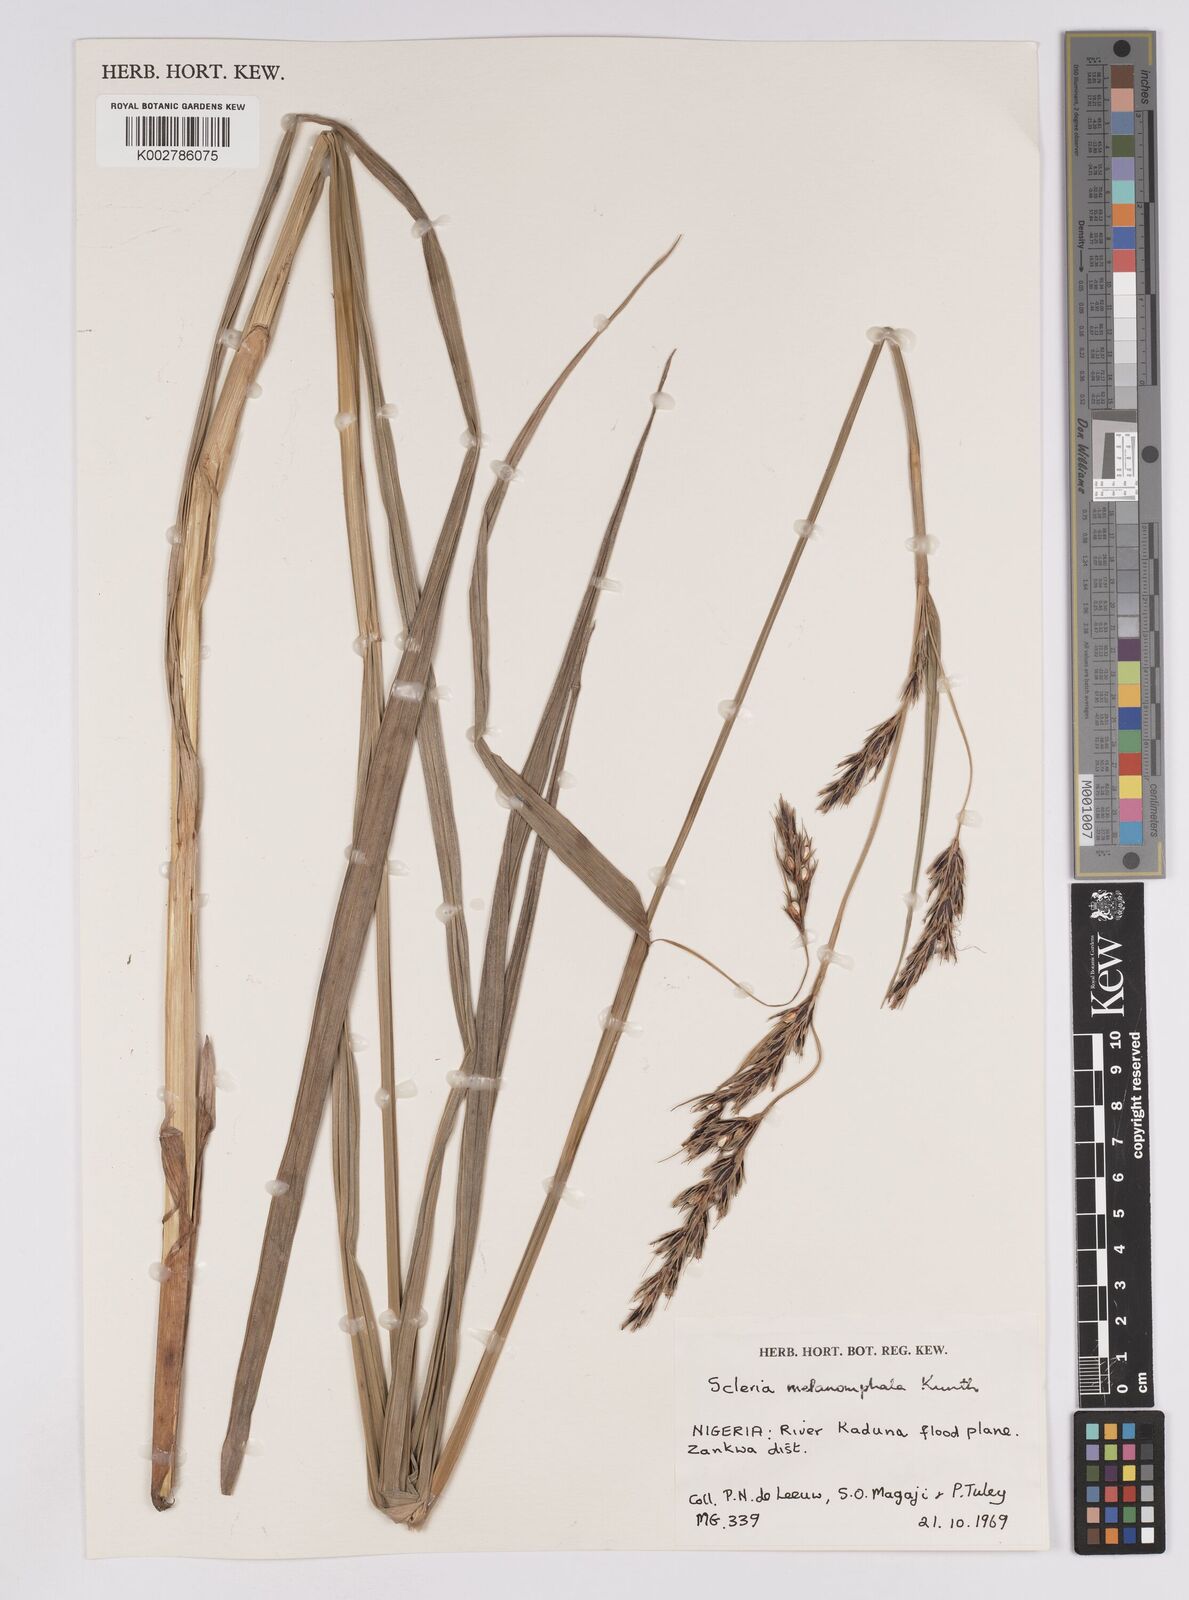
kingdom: Plantae
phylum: Tracheophyta
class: Liliopsida
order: Poales
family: Cyperaceae
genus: Scleria
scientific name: Scleria melanomphala
